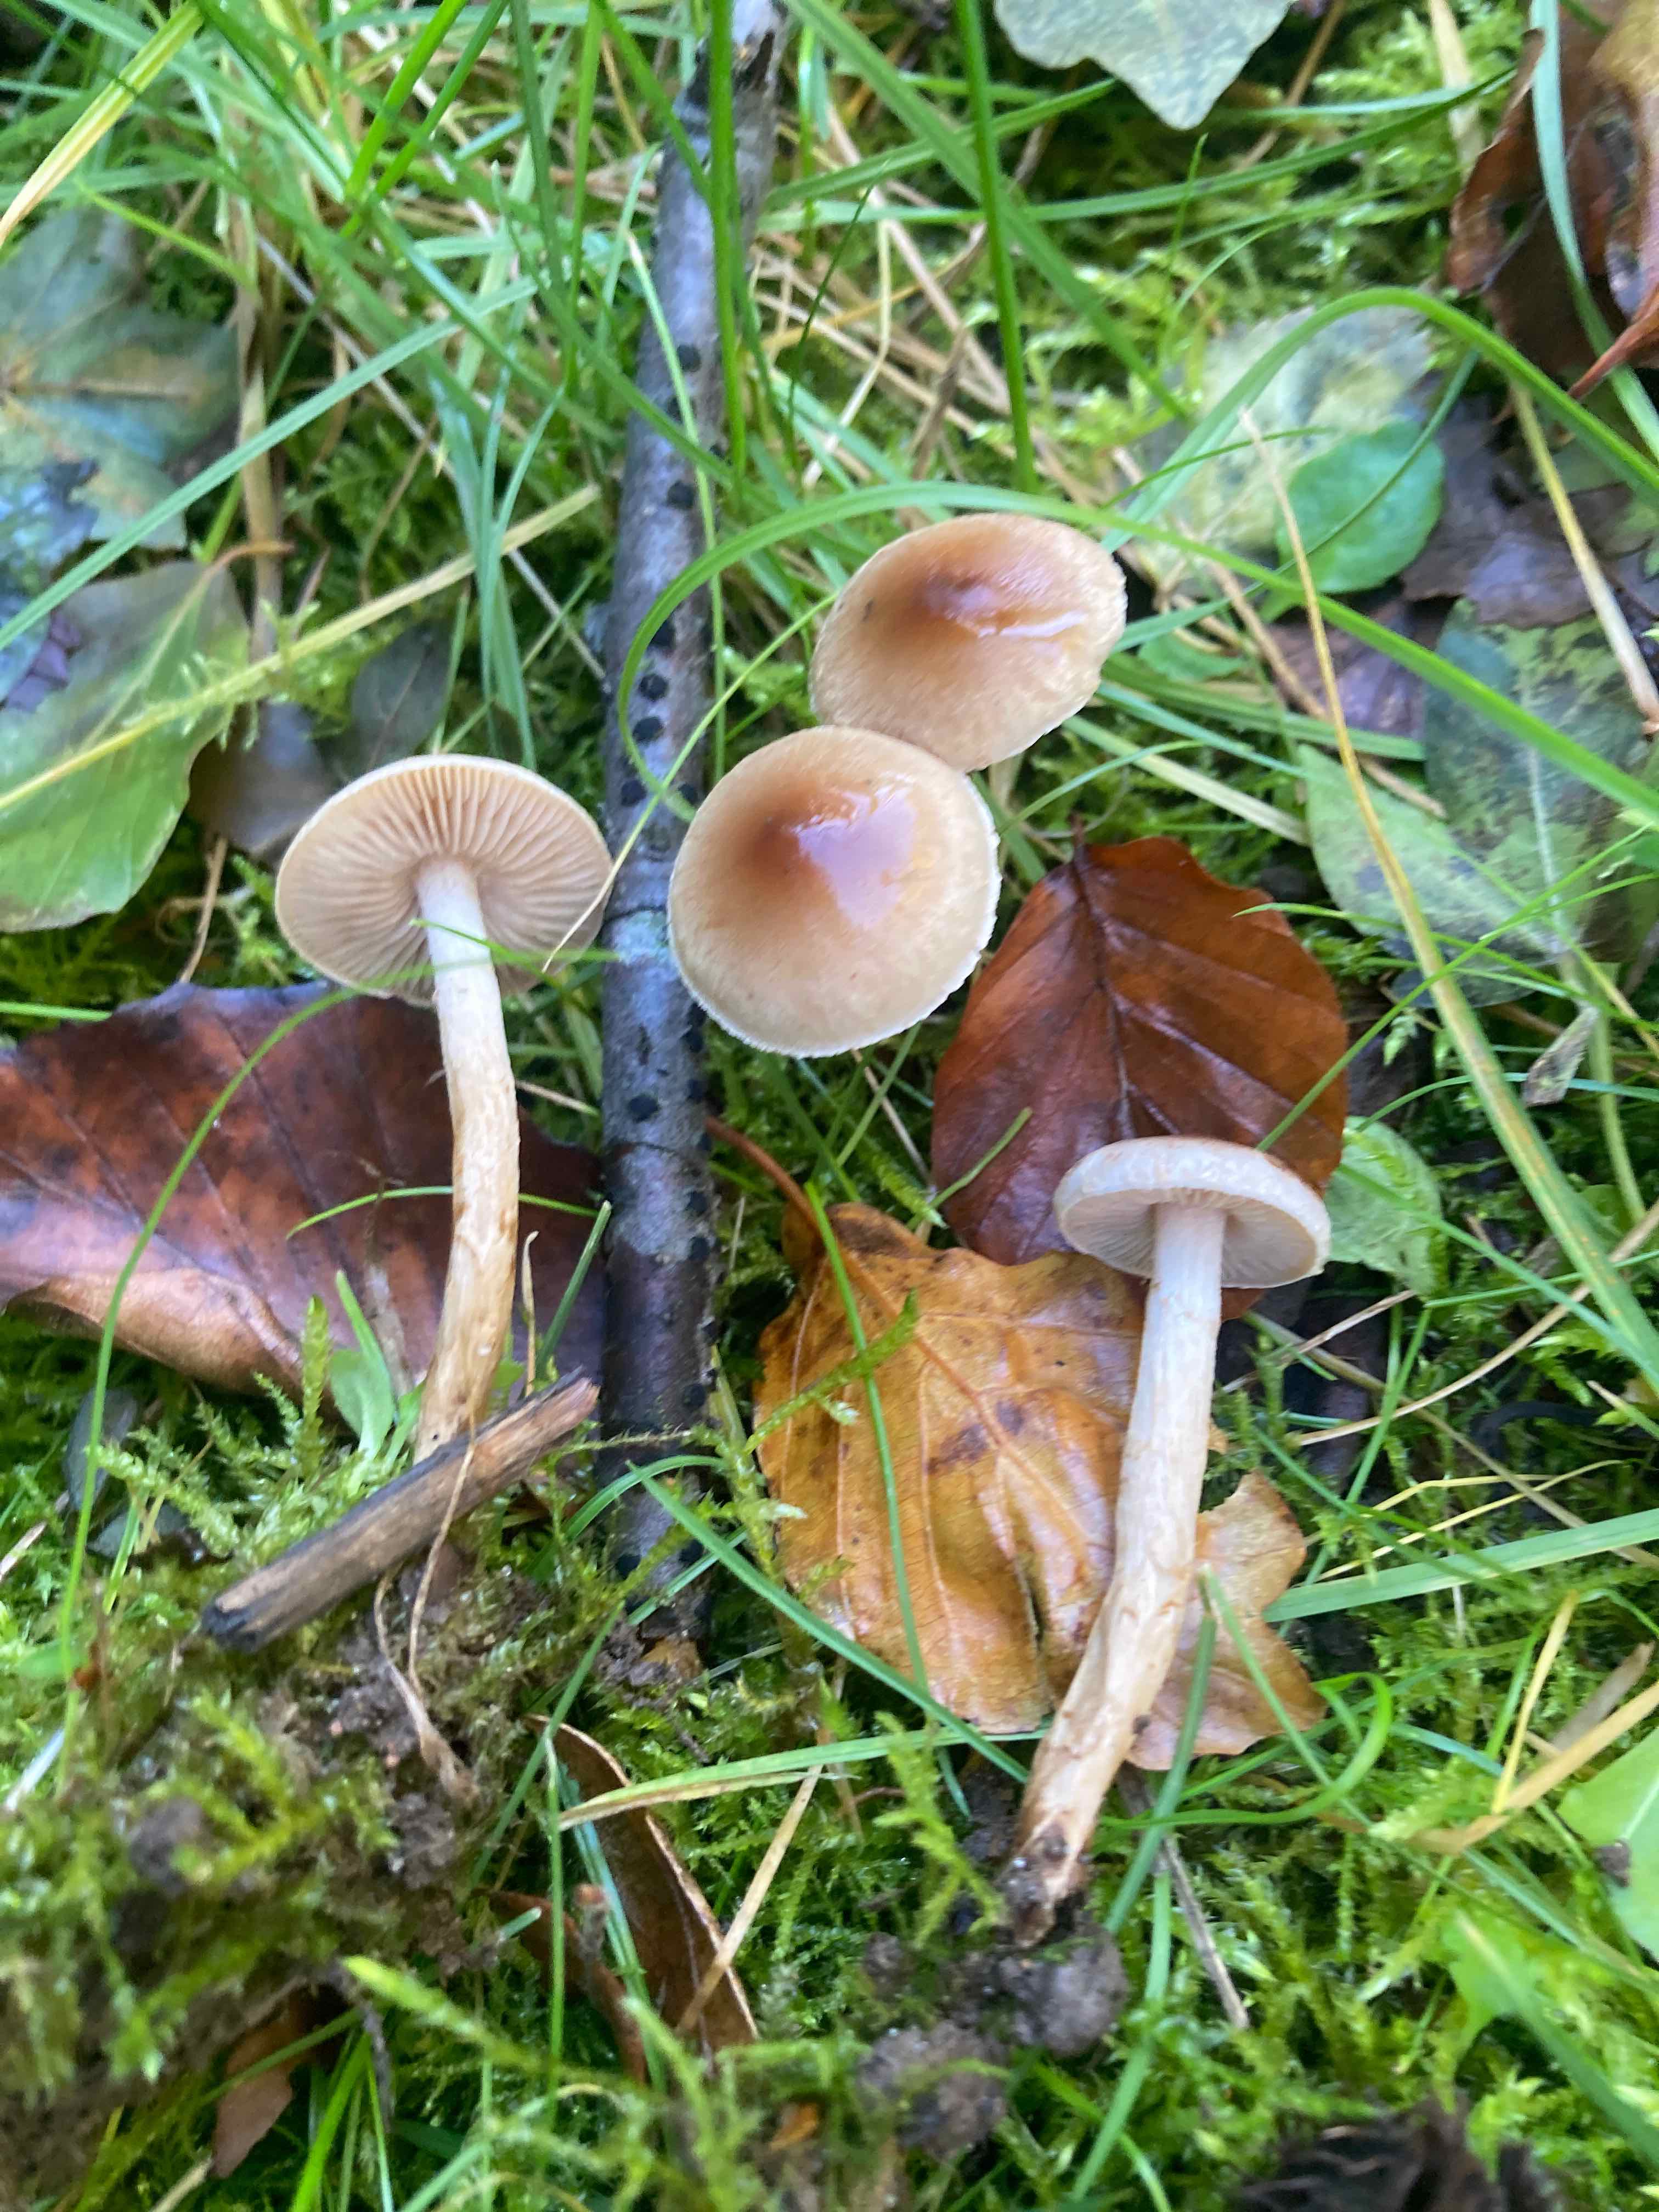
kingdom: Fungi
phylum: Basidiomycota
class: Agaricomycetes
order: Agaricales
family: Hymenogastraceae
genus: Hebeloma
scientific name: Hebeloma mesophaeum
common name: lerbrun tåreblad
